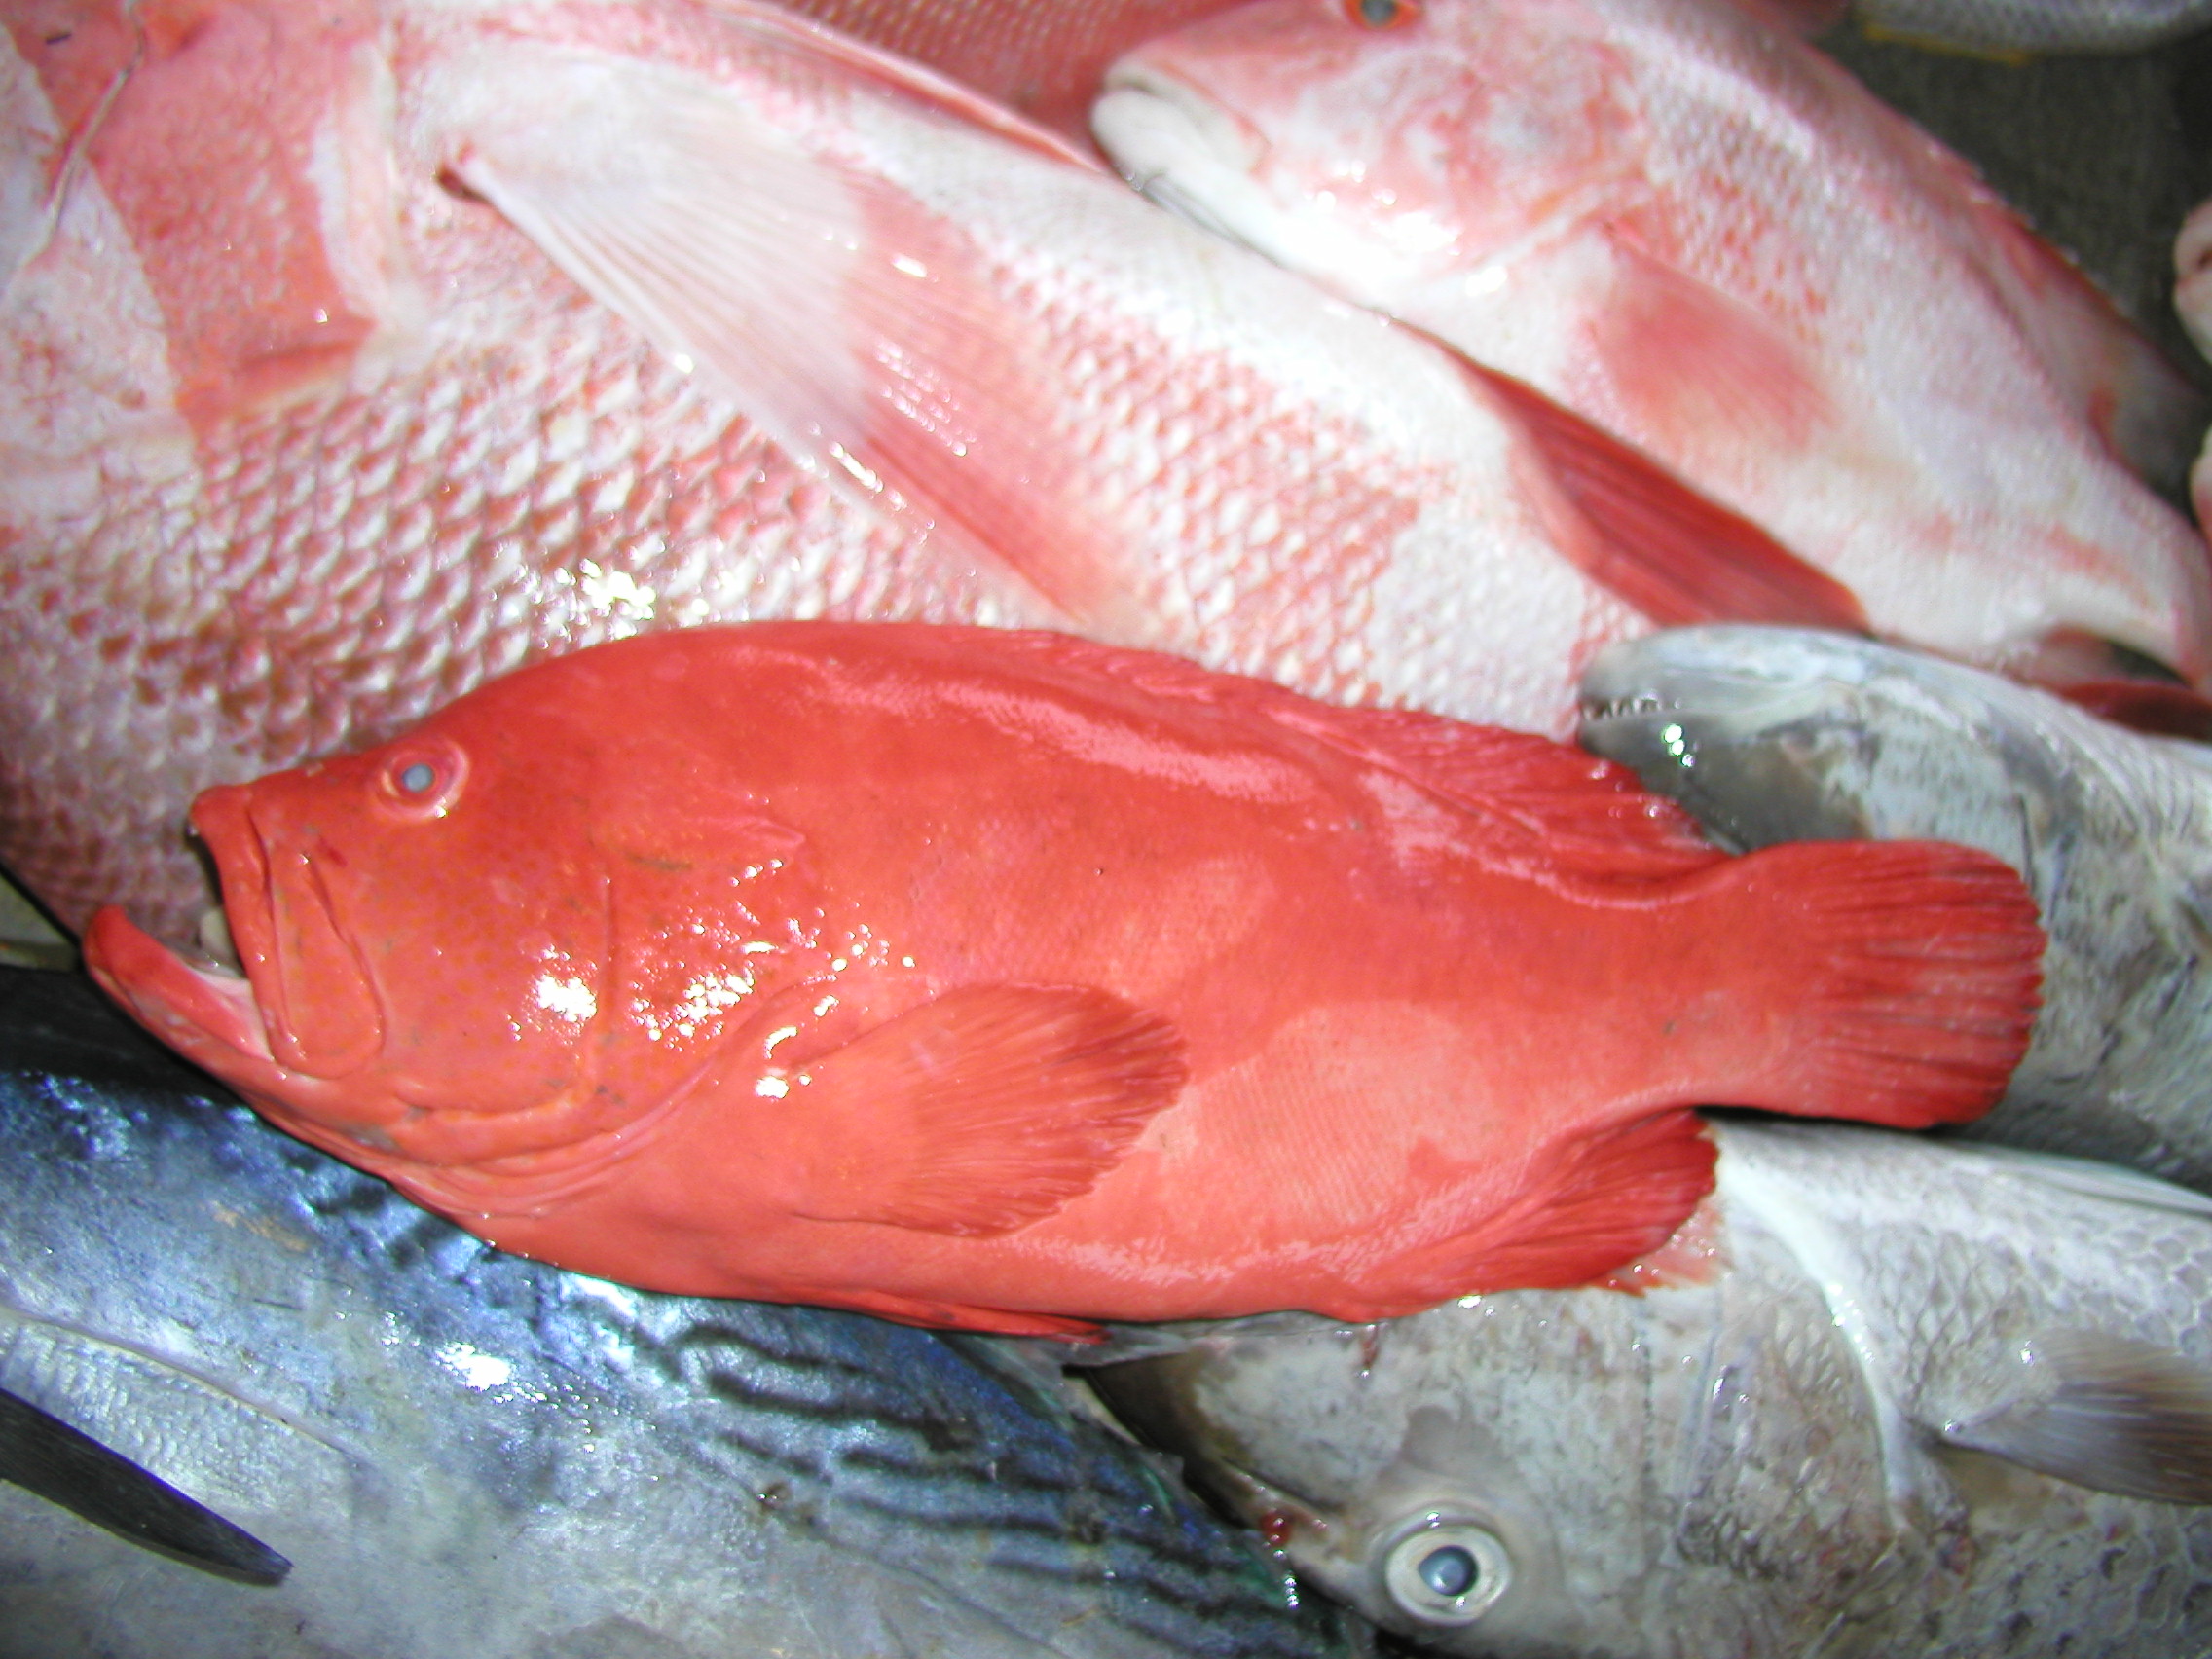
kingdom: Animalia
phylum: Chordata
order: Perciformes
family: Serranidae
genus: Cephalopholis
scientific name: Cephalopholis sonnerati
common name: Tomato hind
